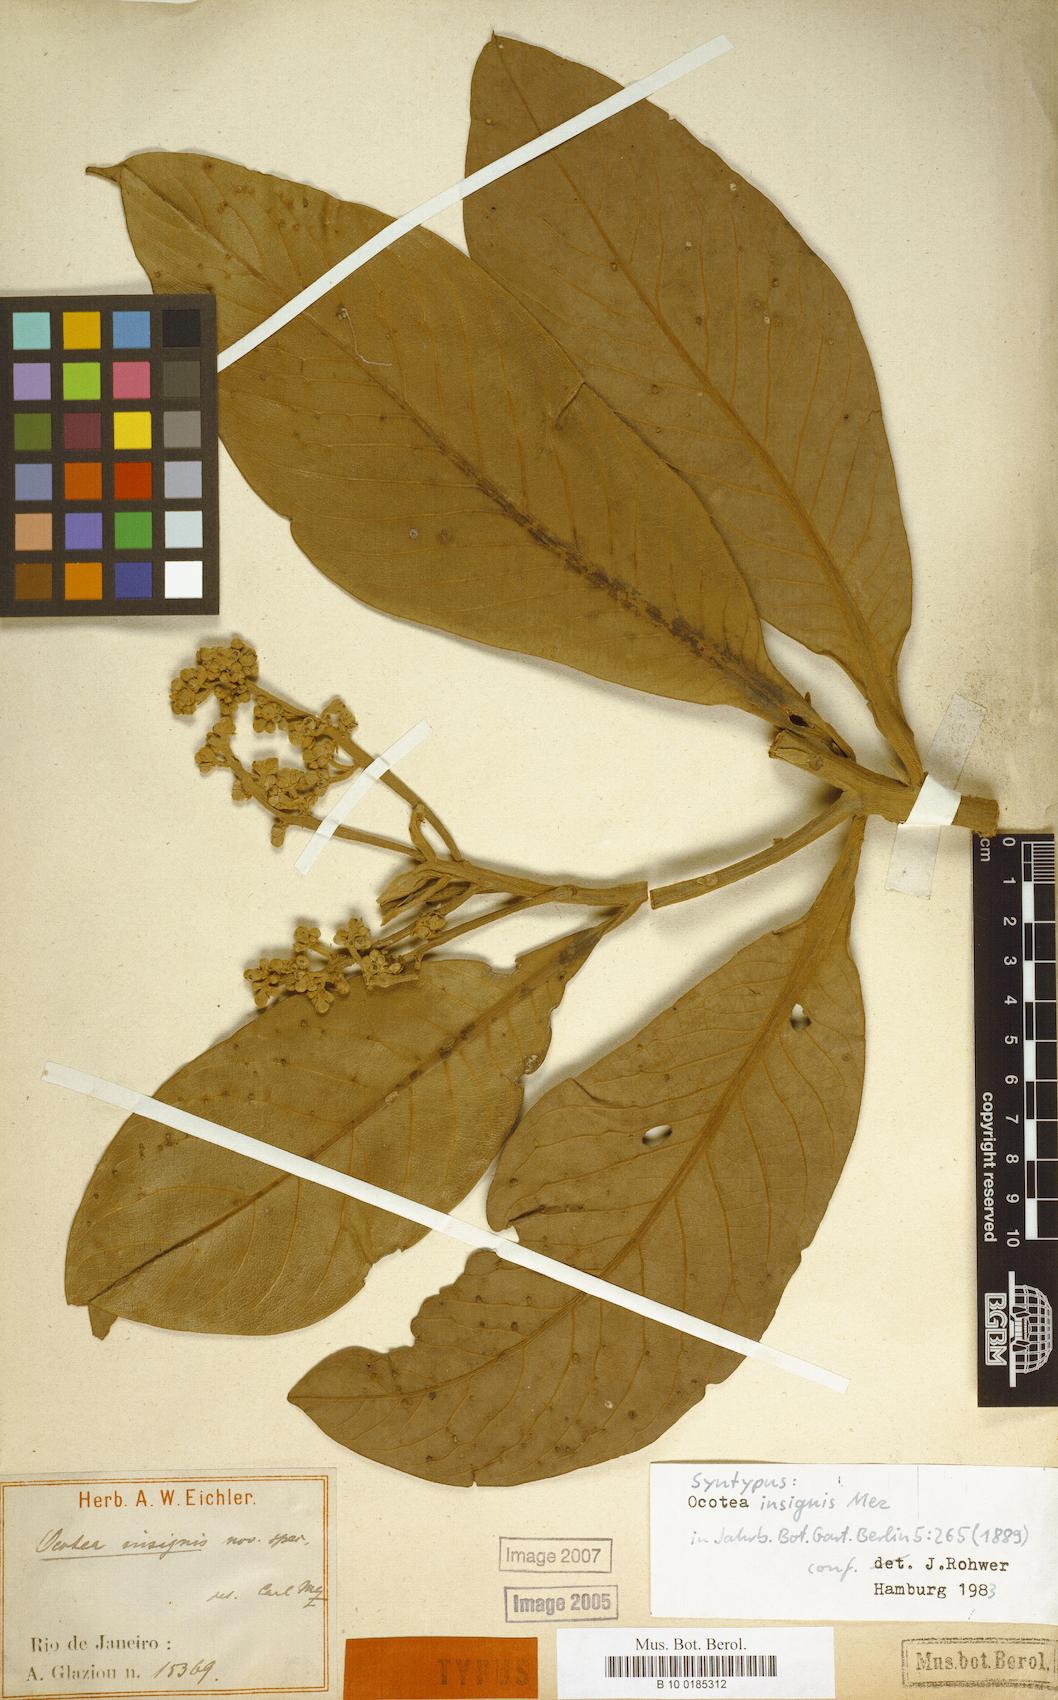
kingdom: Plantae
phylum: Tracheophyta
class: Magnoliopsida
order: Laurales
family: Lauraceae
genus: Ocotea
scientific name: Ocotea insignis
